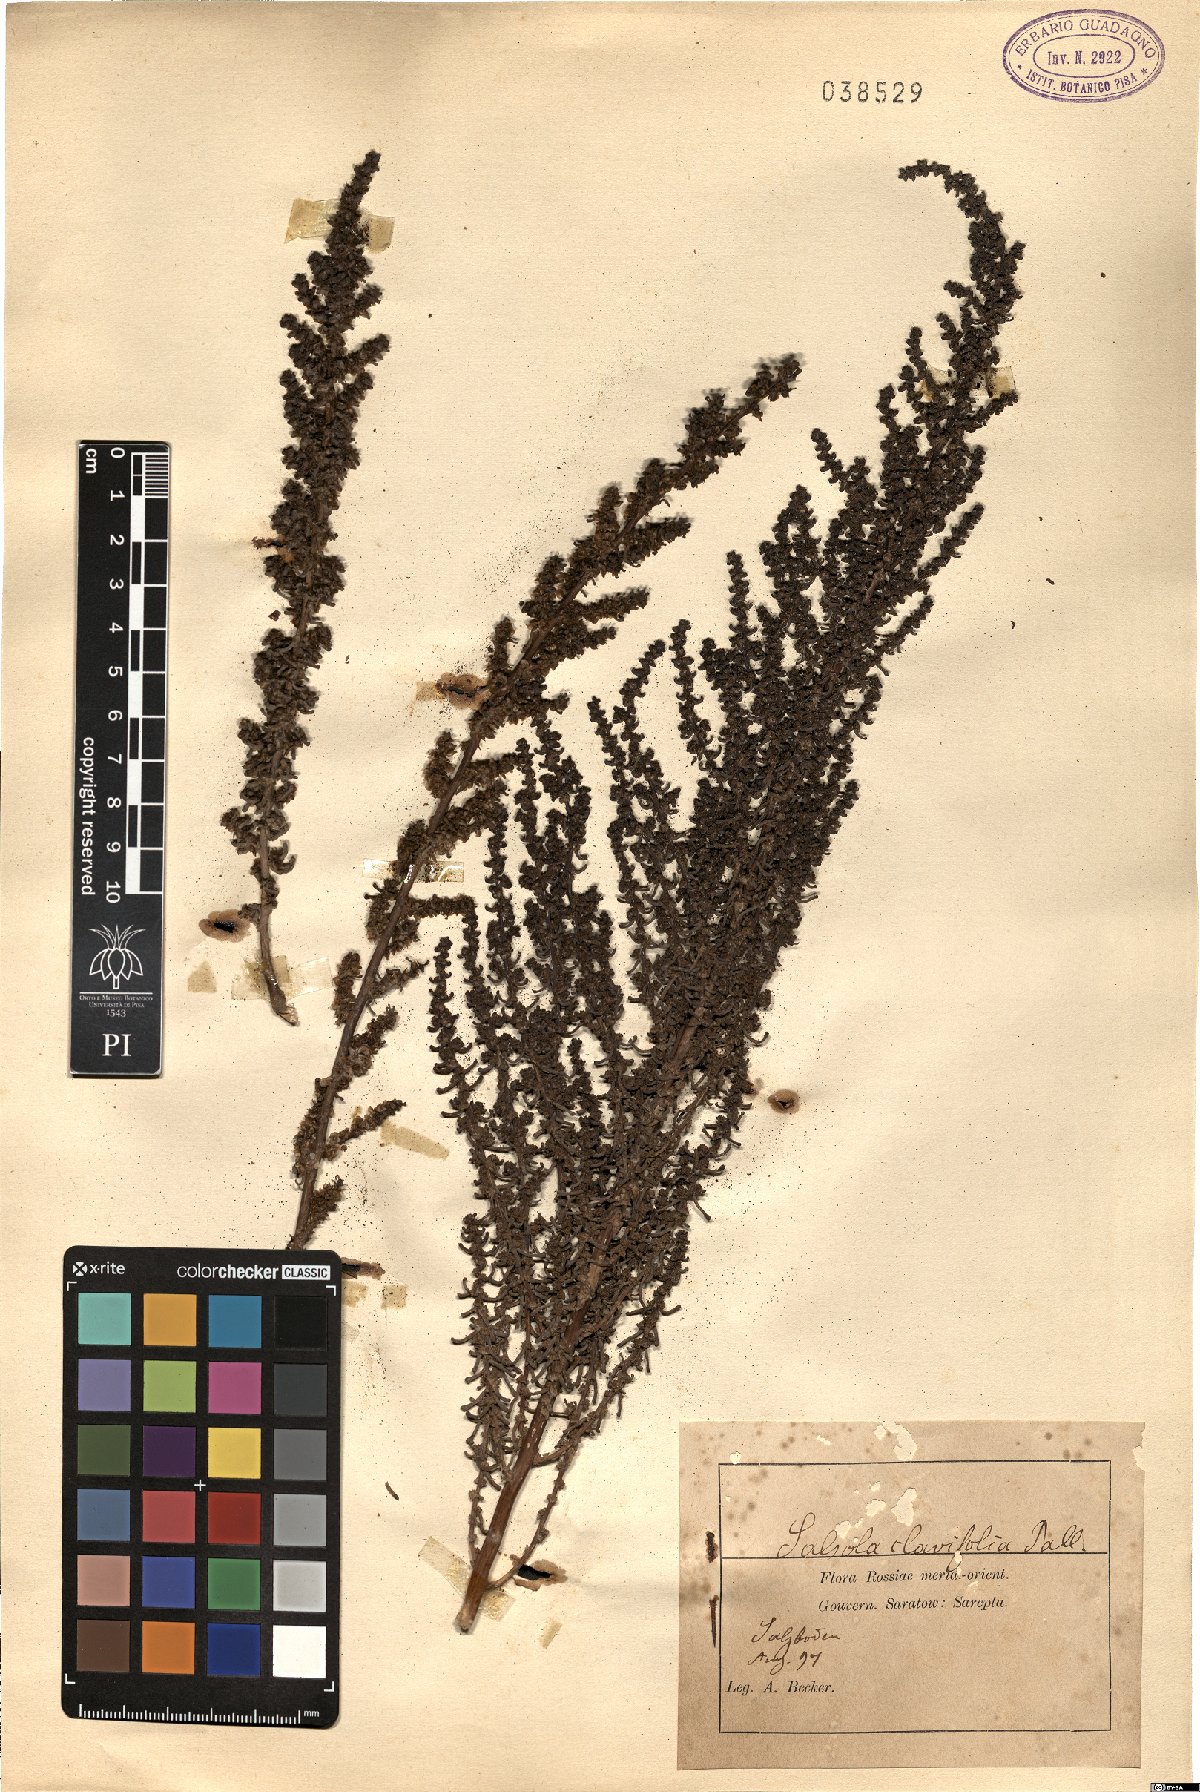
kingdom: Plantae
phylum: Tracheophyta
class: Magnoliopsida
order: Caryophyllales
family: Amaranthaceae
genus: Soda
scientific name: Soda foliosa
